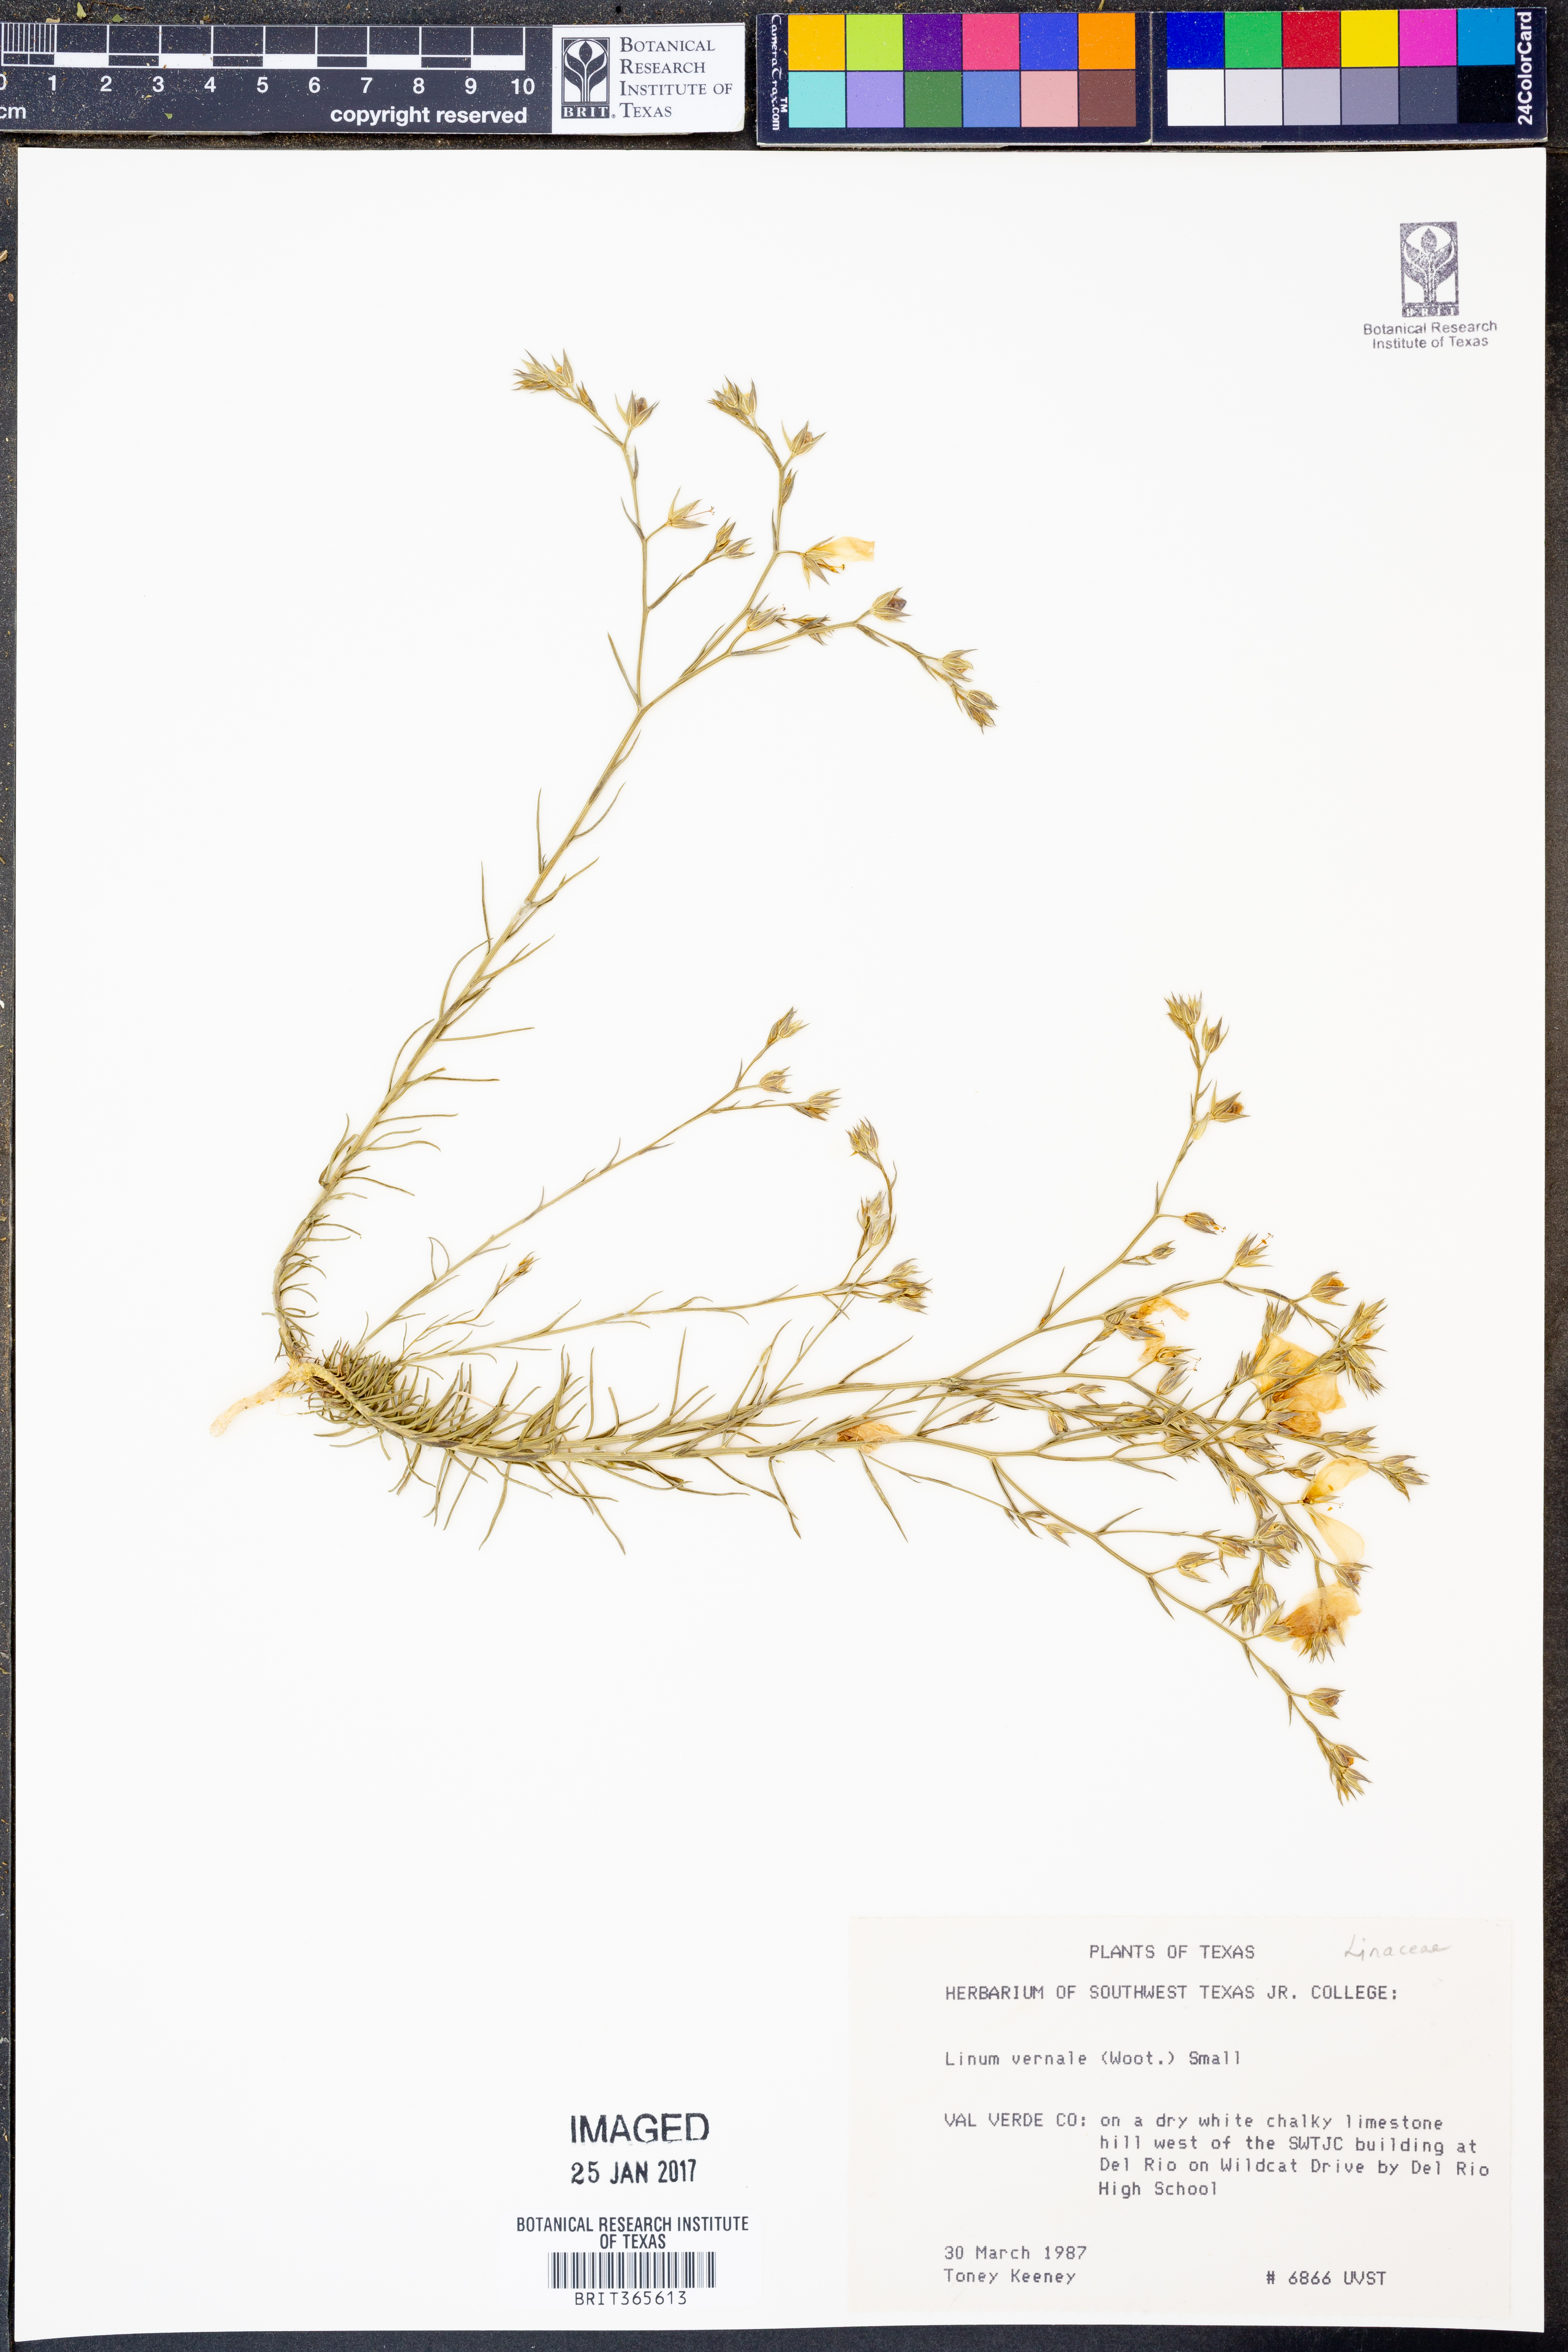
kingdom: Plantae
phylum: Tracheophyta
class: Magnoliopsida
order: Malpighiales
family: Linaceae
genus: Linum
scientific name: Linum vernale
